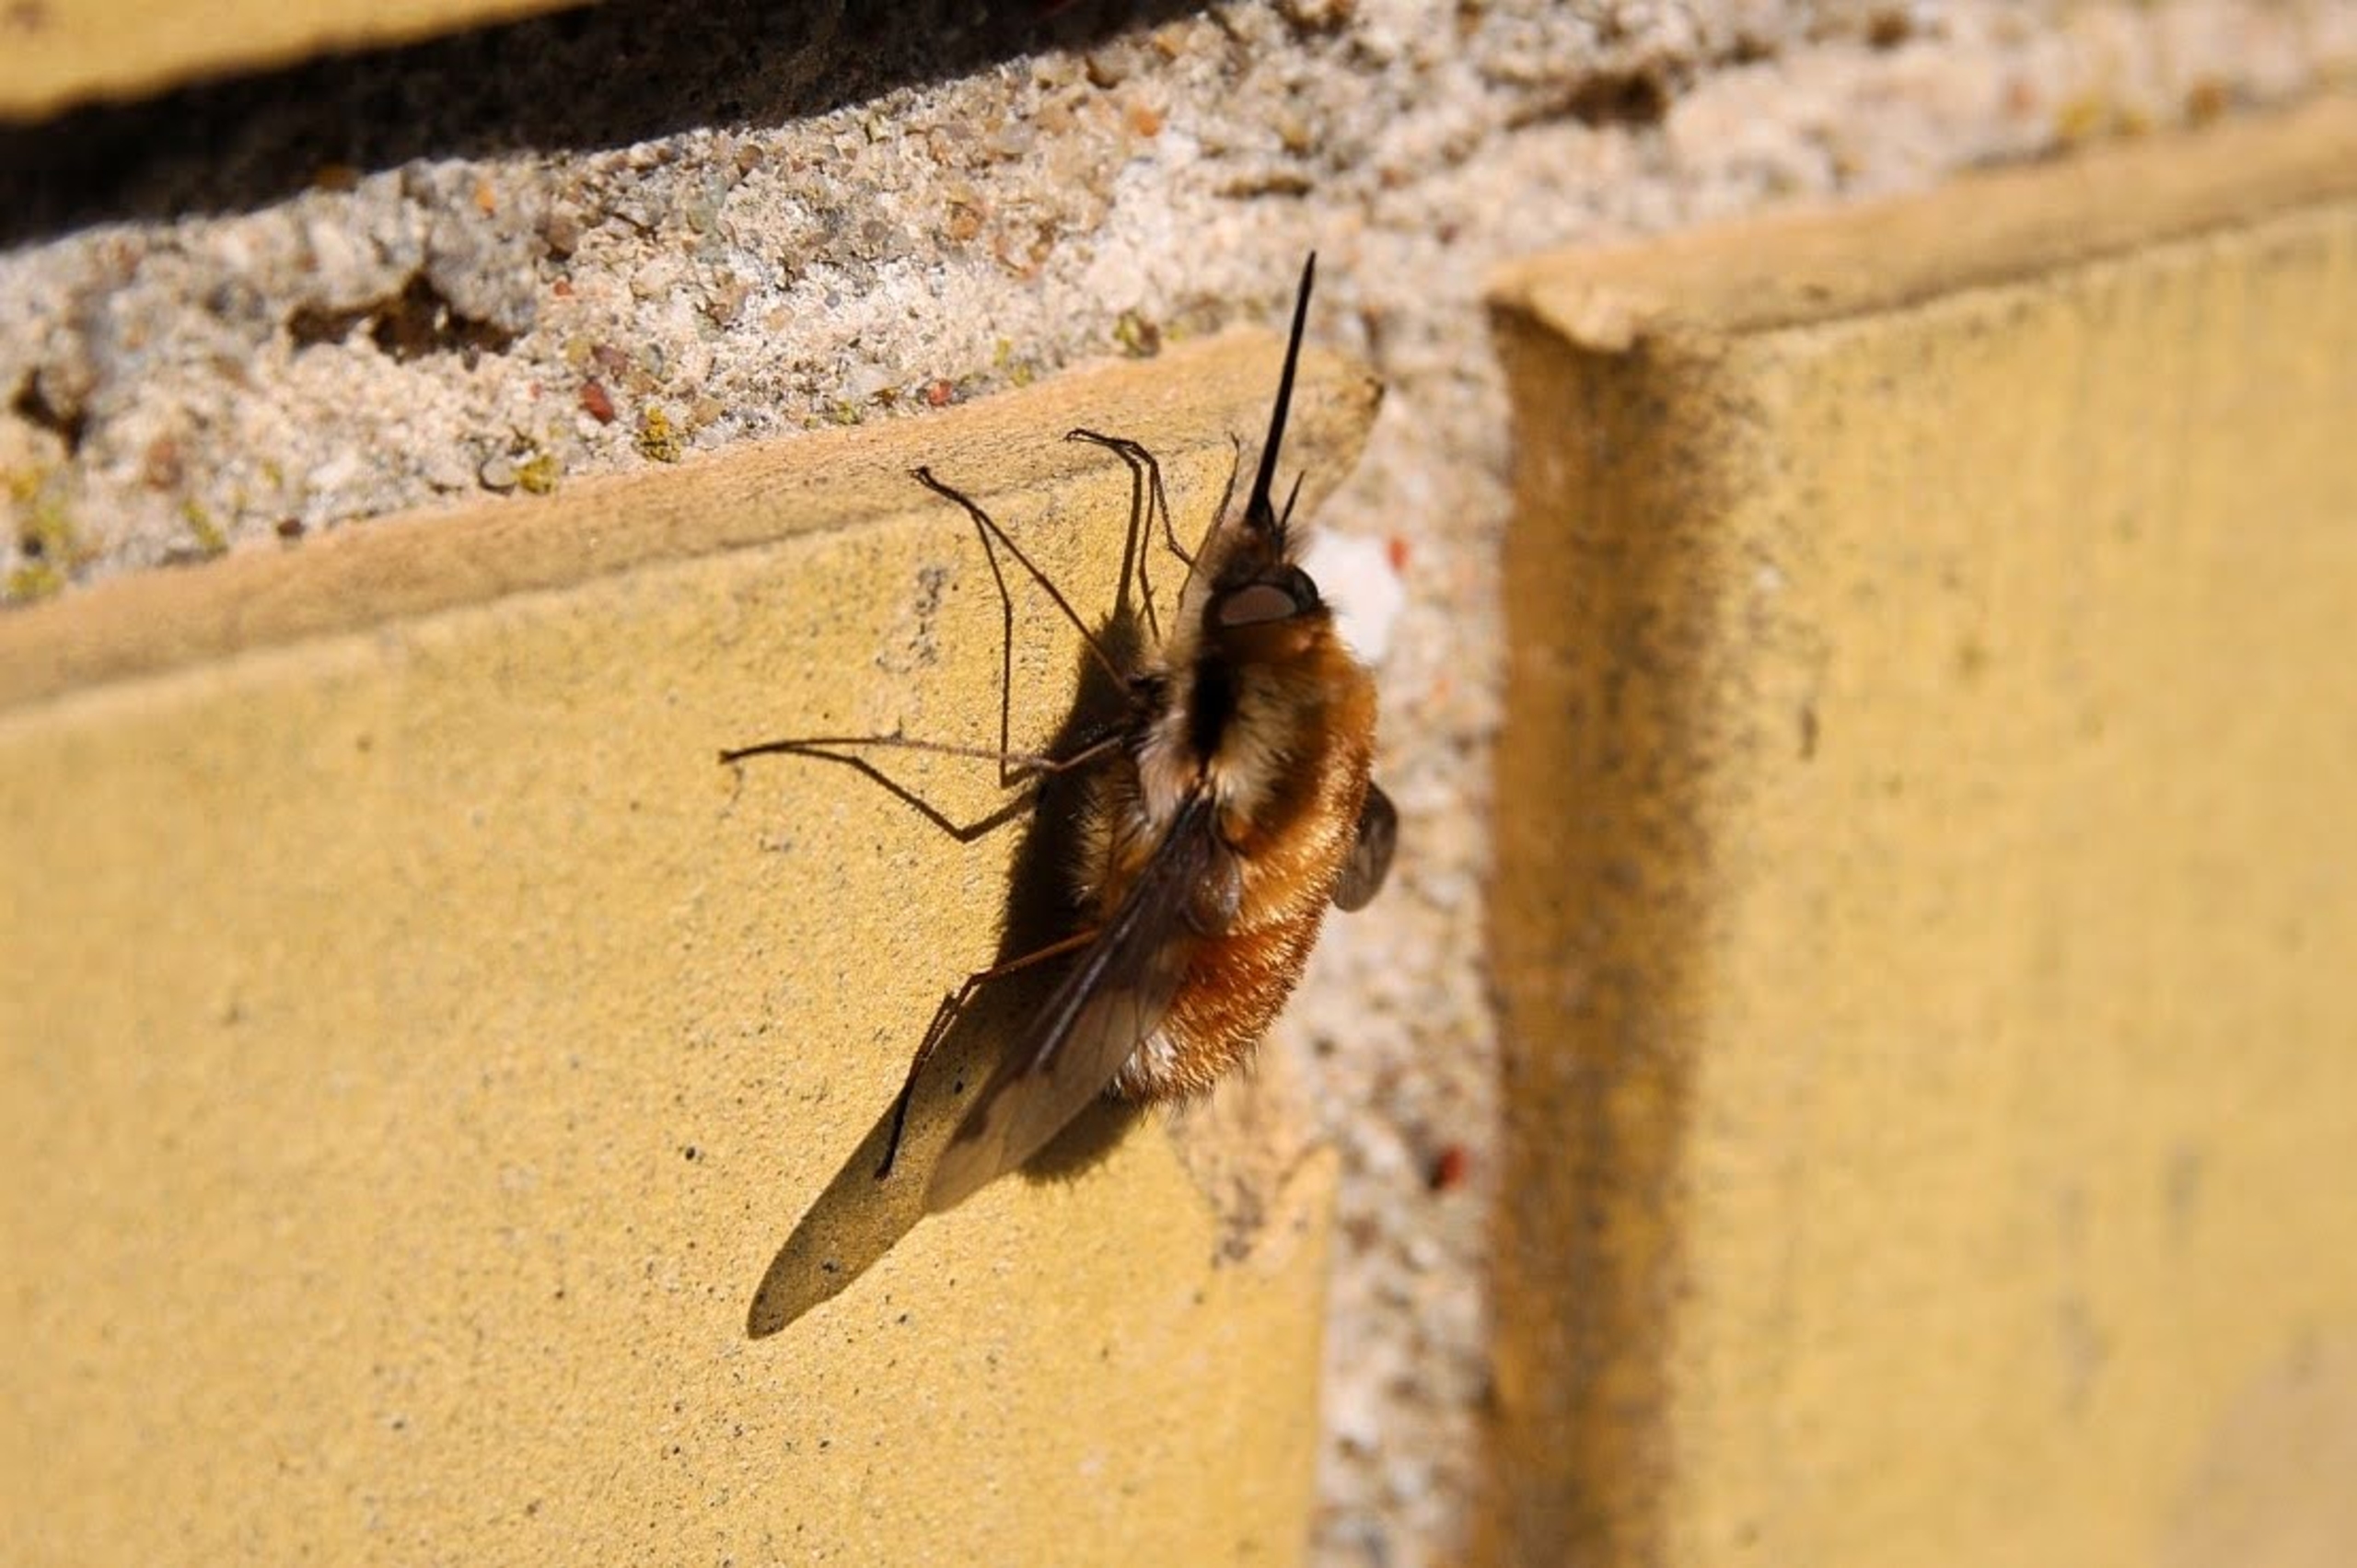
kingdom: Animalia
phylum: Arthropoda
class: Insecta
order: Diptera
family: Bombyliidae
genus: Bombylius
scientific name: Bombylius major
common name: Stor humleflue
